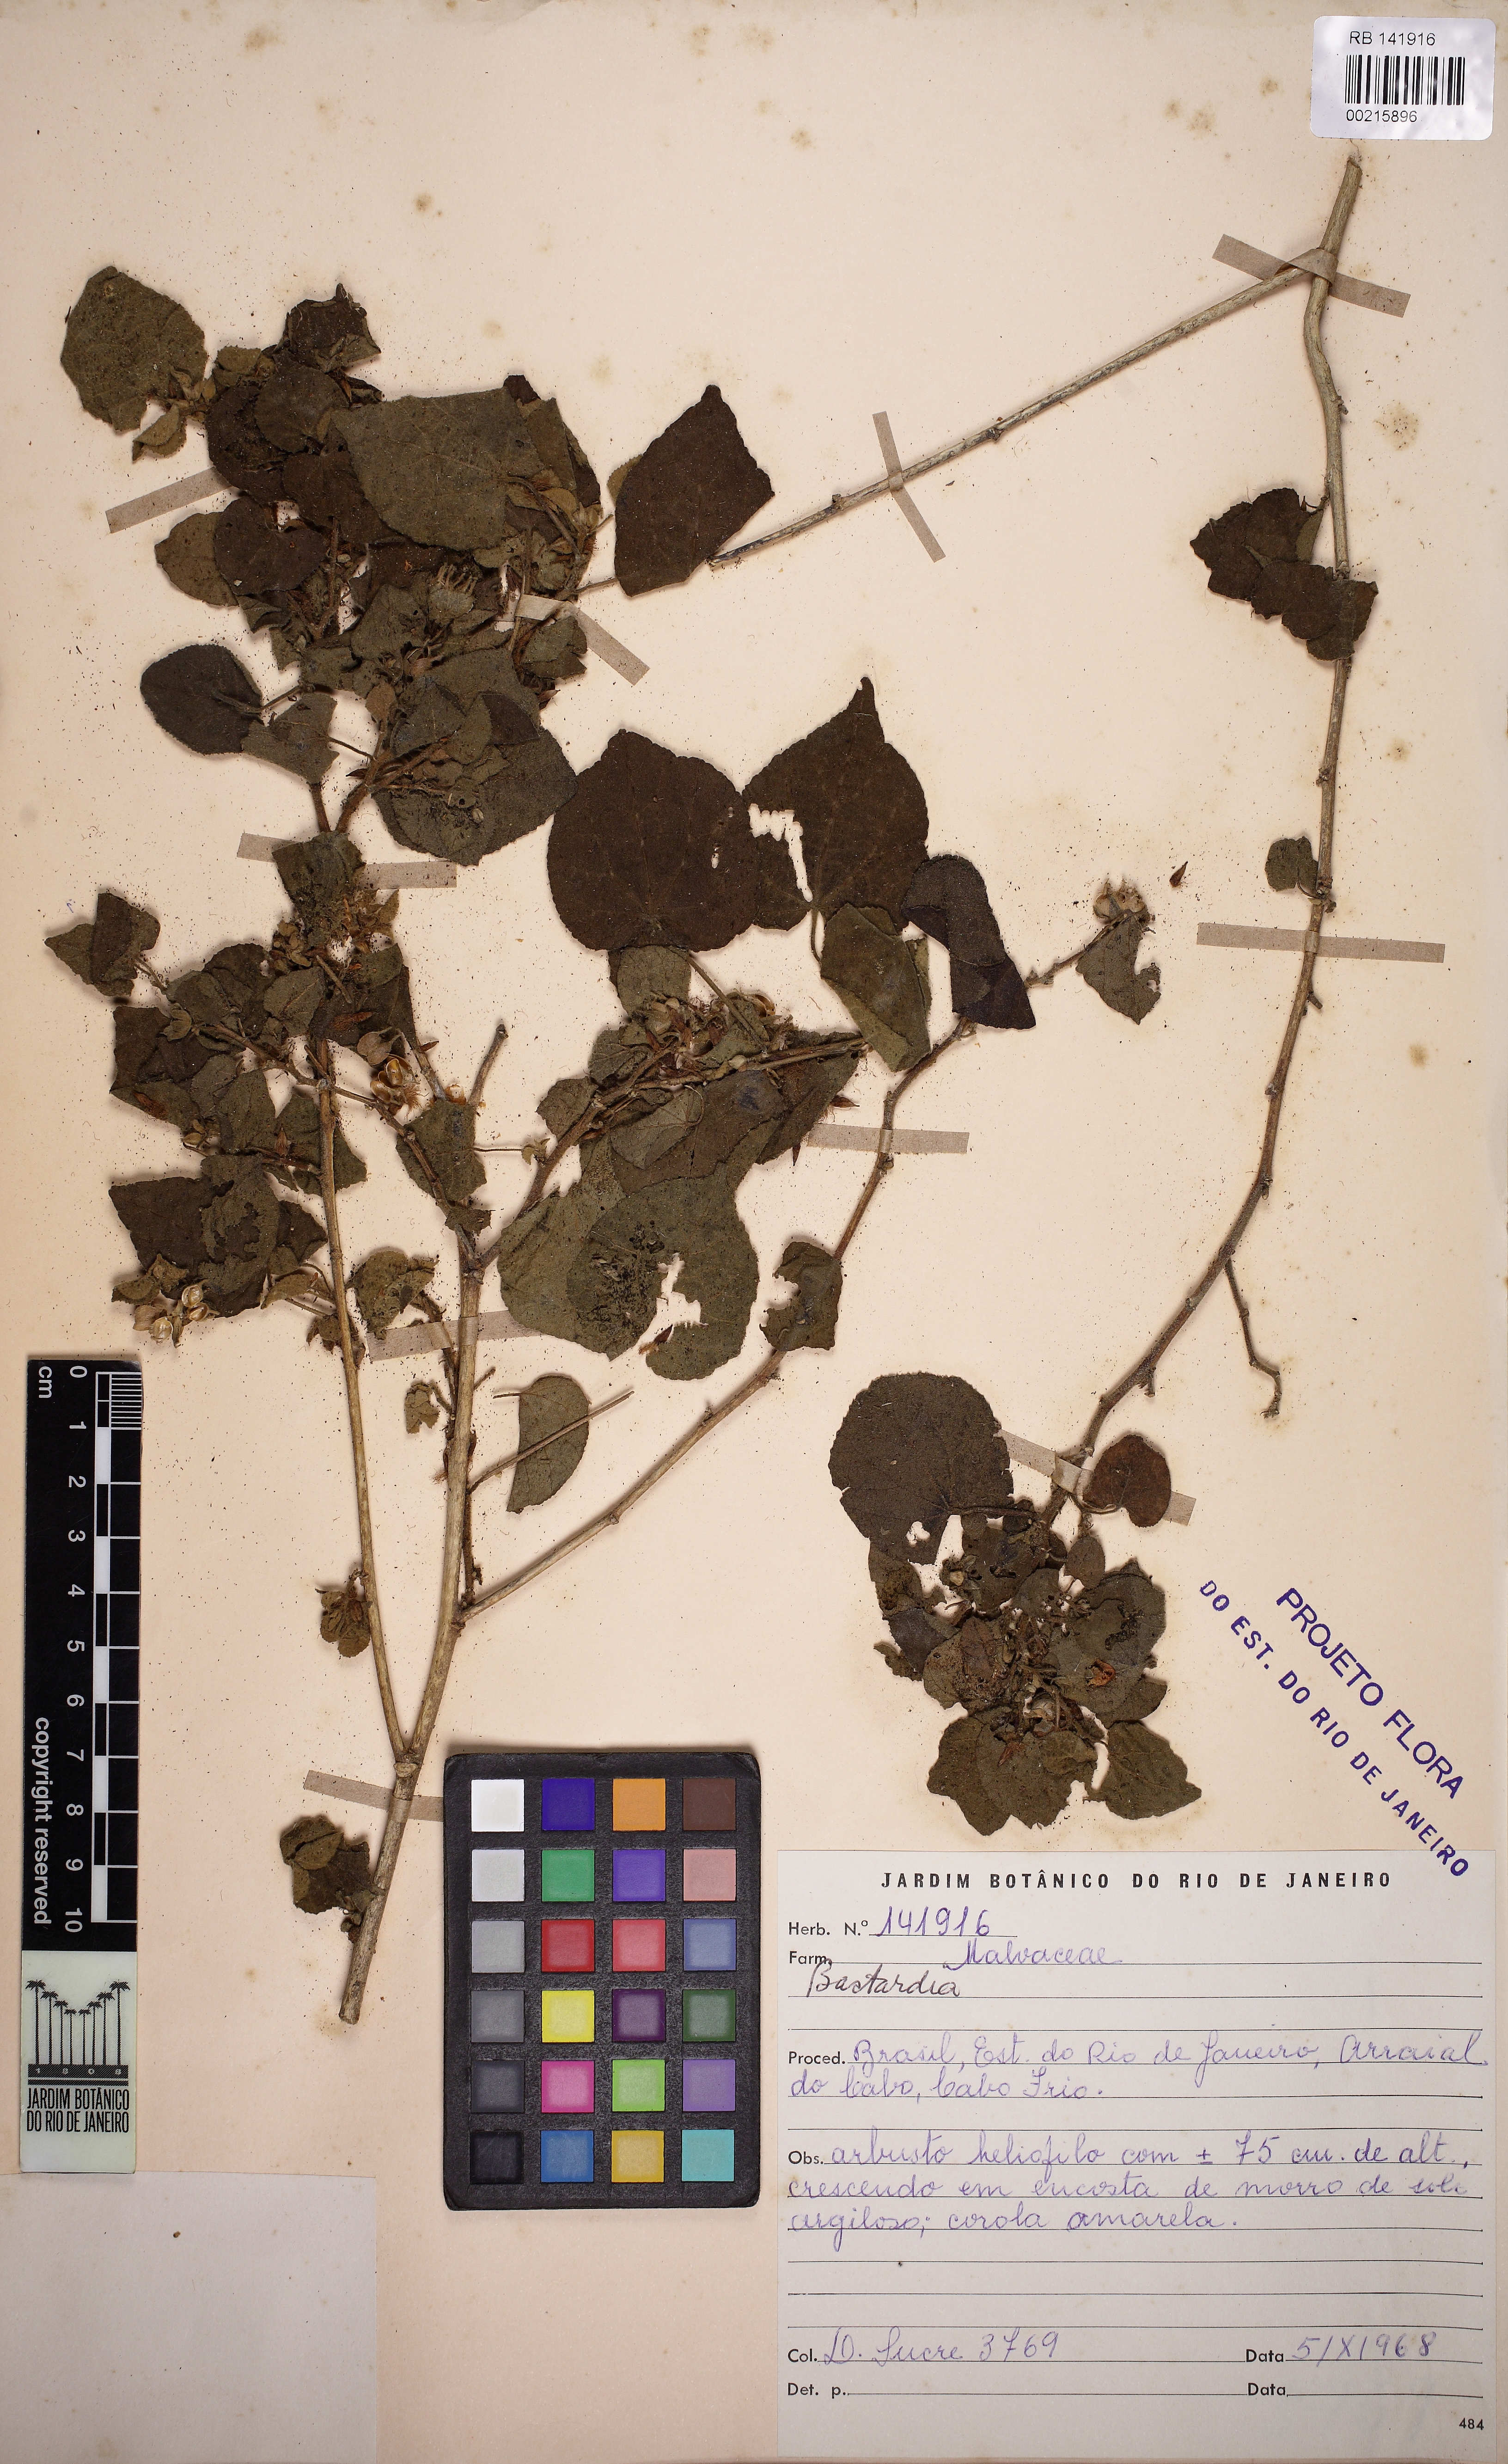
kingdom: Plantae
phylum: Tracheophyta
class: Magnoliopsida
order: Malvales
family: Malvaceae
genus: Abutilon
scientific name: Abutilon
